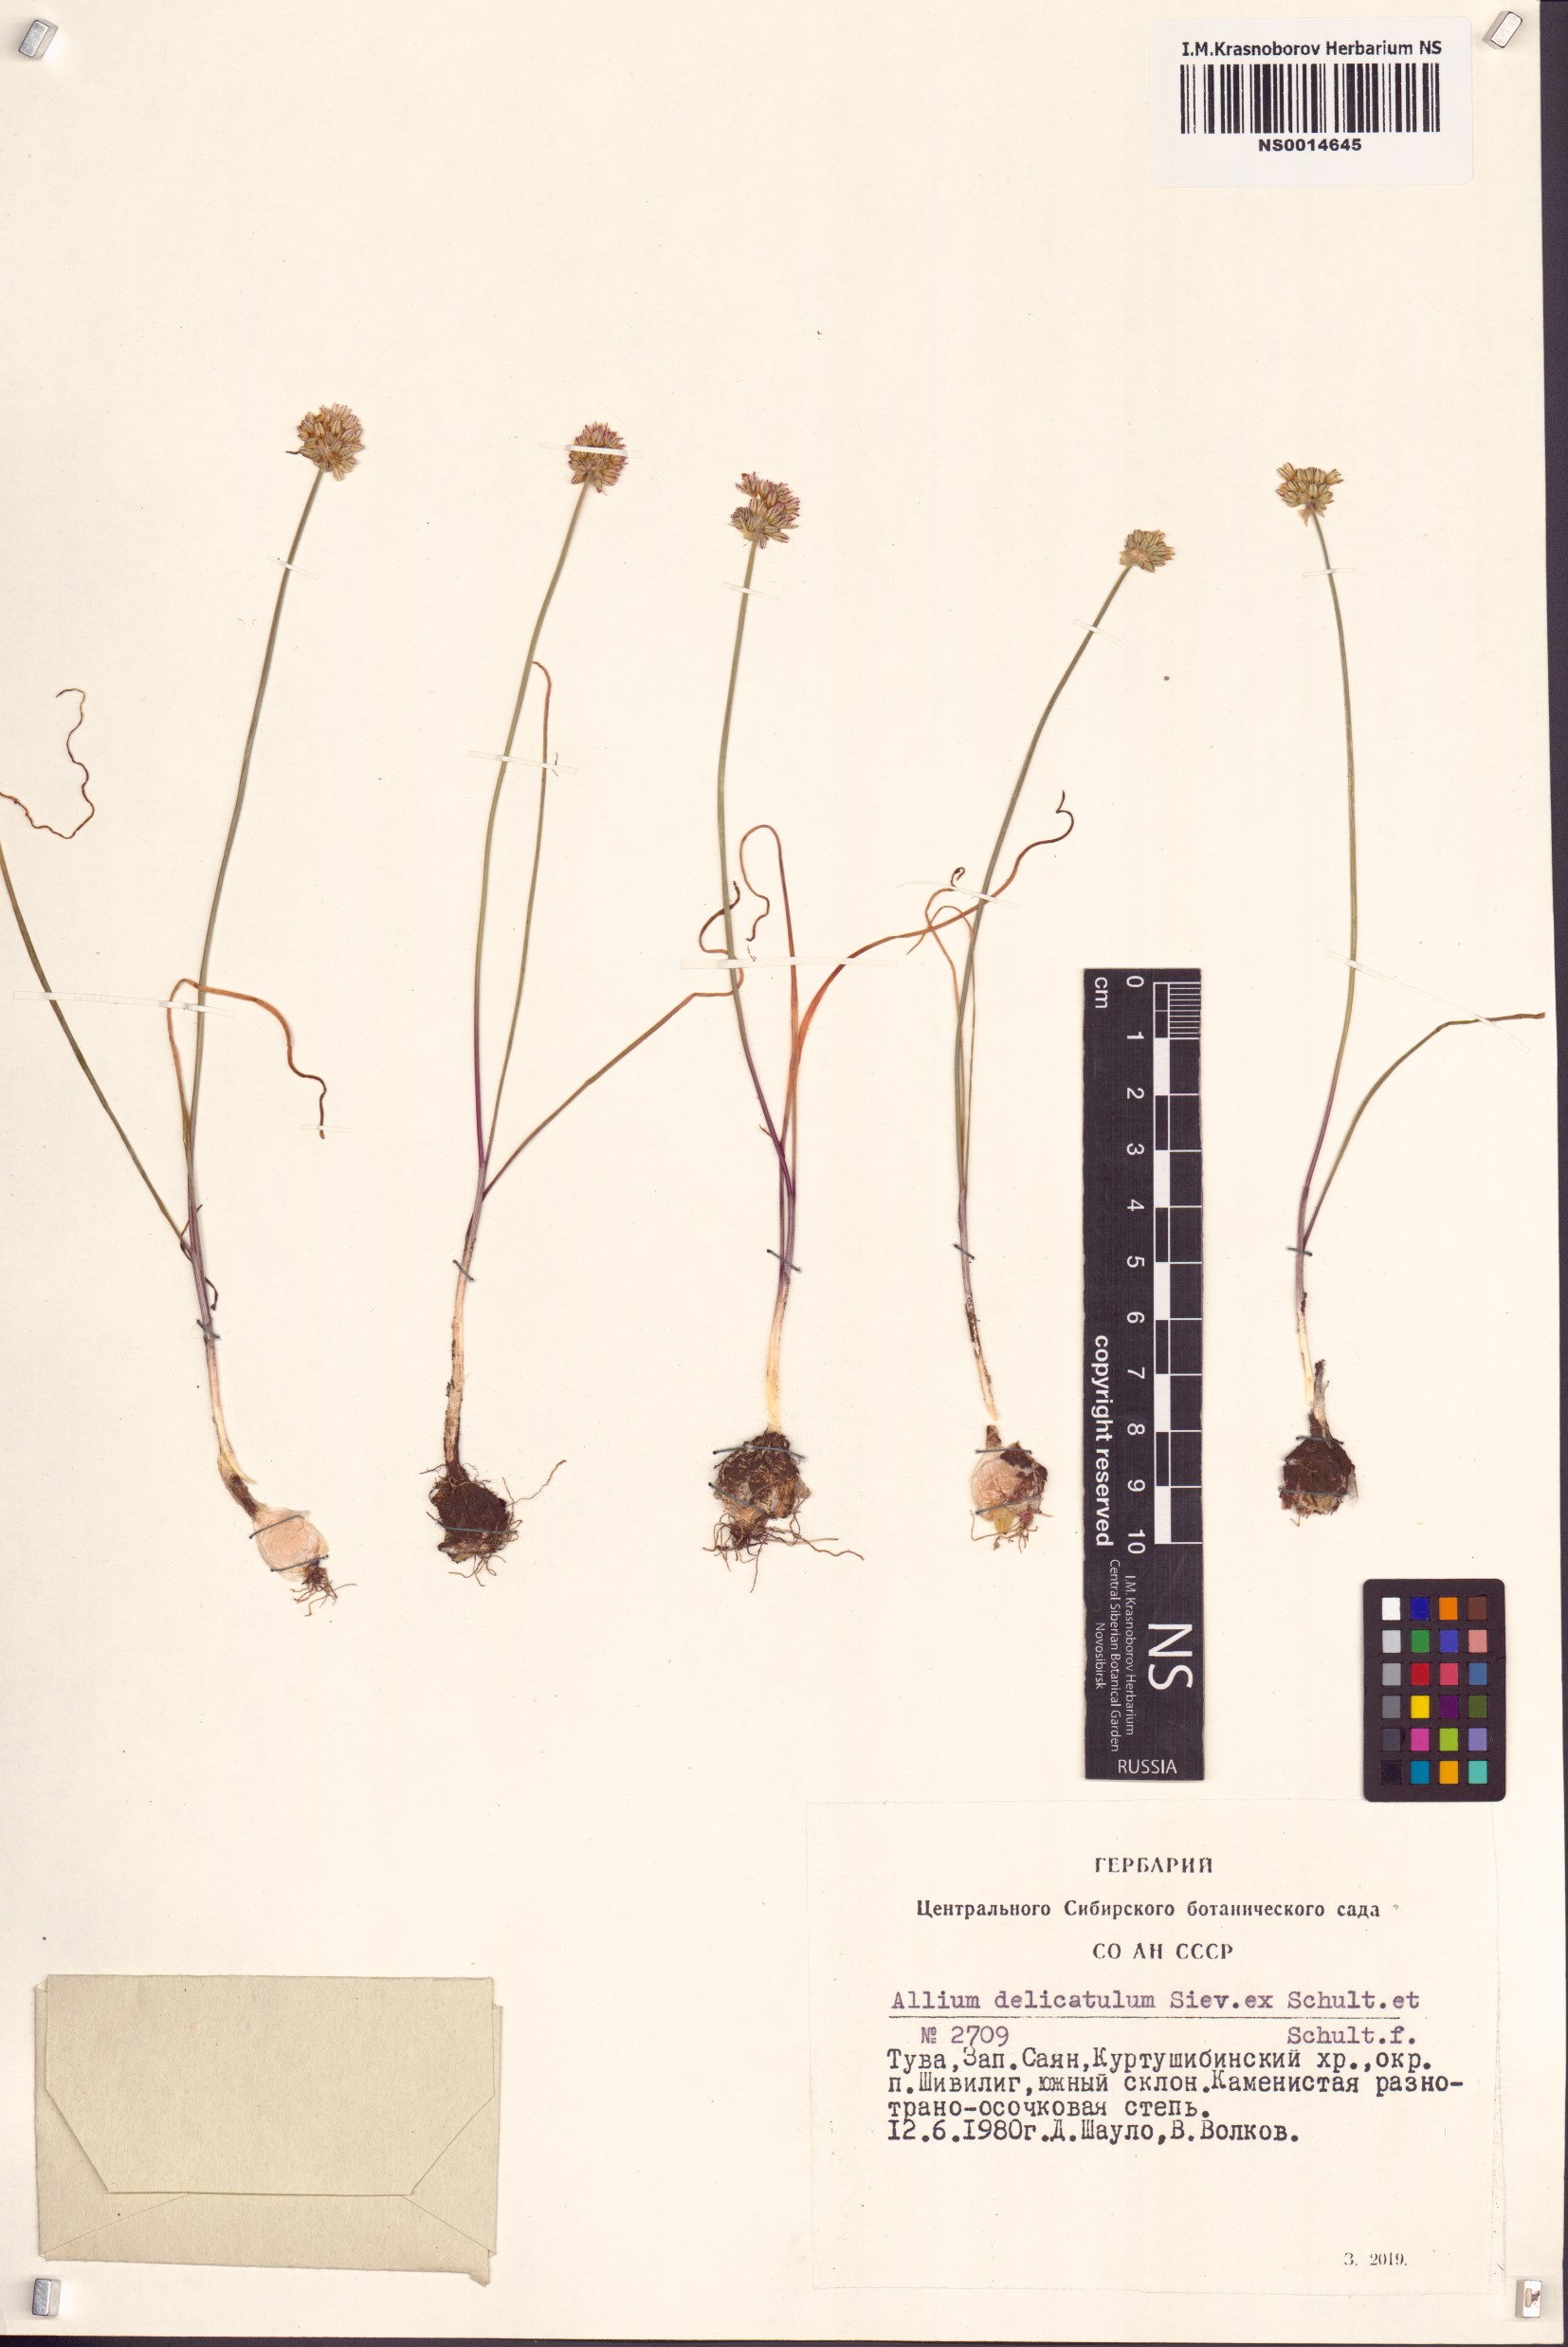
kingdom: Plantae
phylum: Tracheophyta
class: Liliopsida
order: Asparagales
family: Amaryllidaceae
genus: Allium
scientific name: Allium delicatulum
